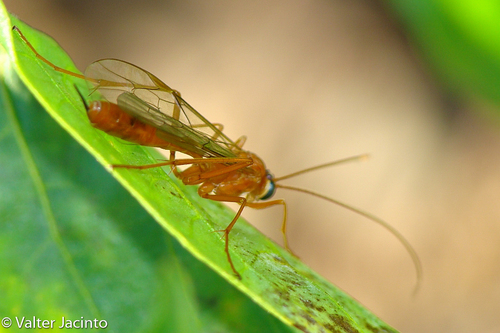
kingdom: Animalia
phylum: Arthropoda
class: Insecta
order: Hymenoptera
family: Ichneumonidae
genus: Netelia
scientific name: Netelia
